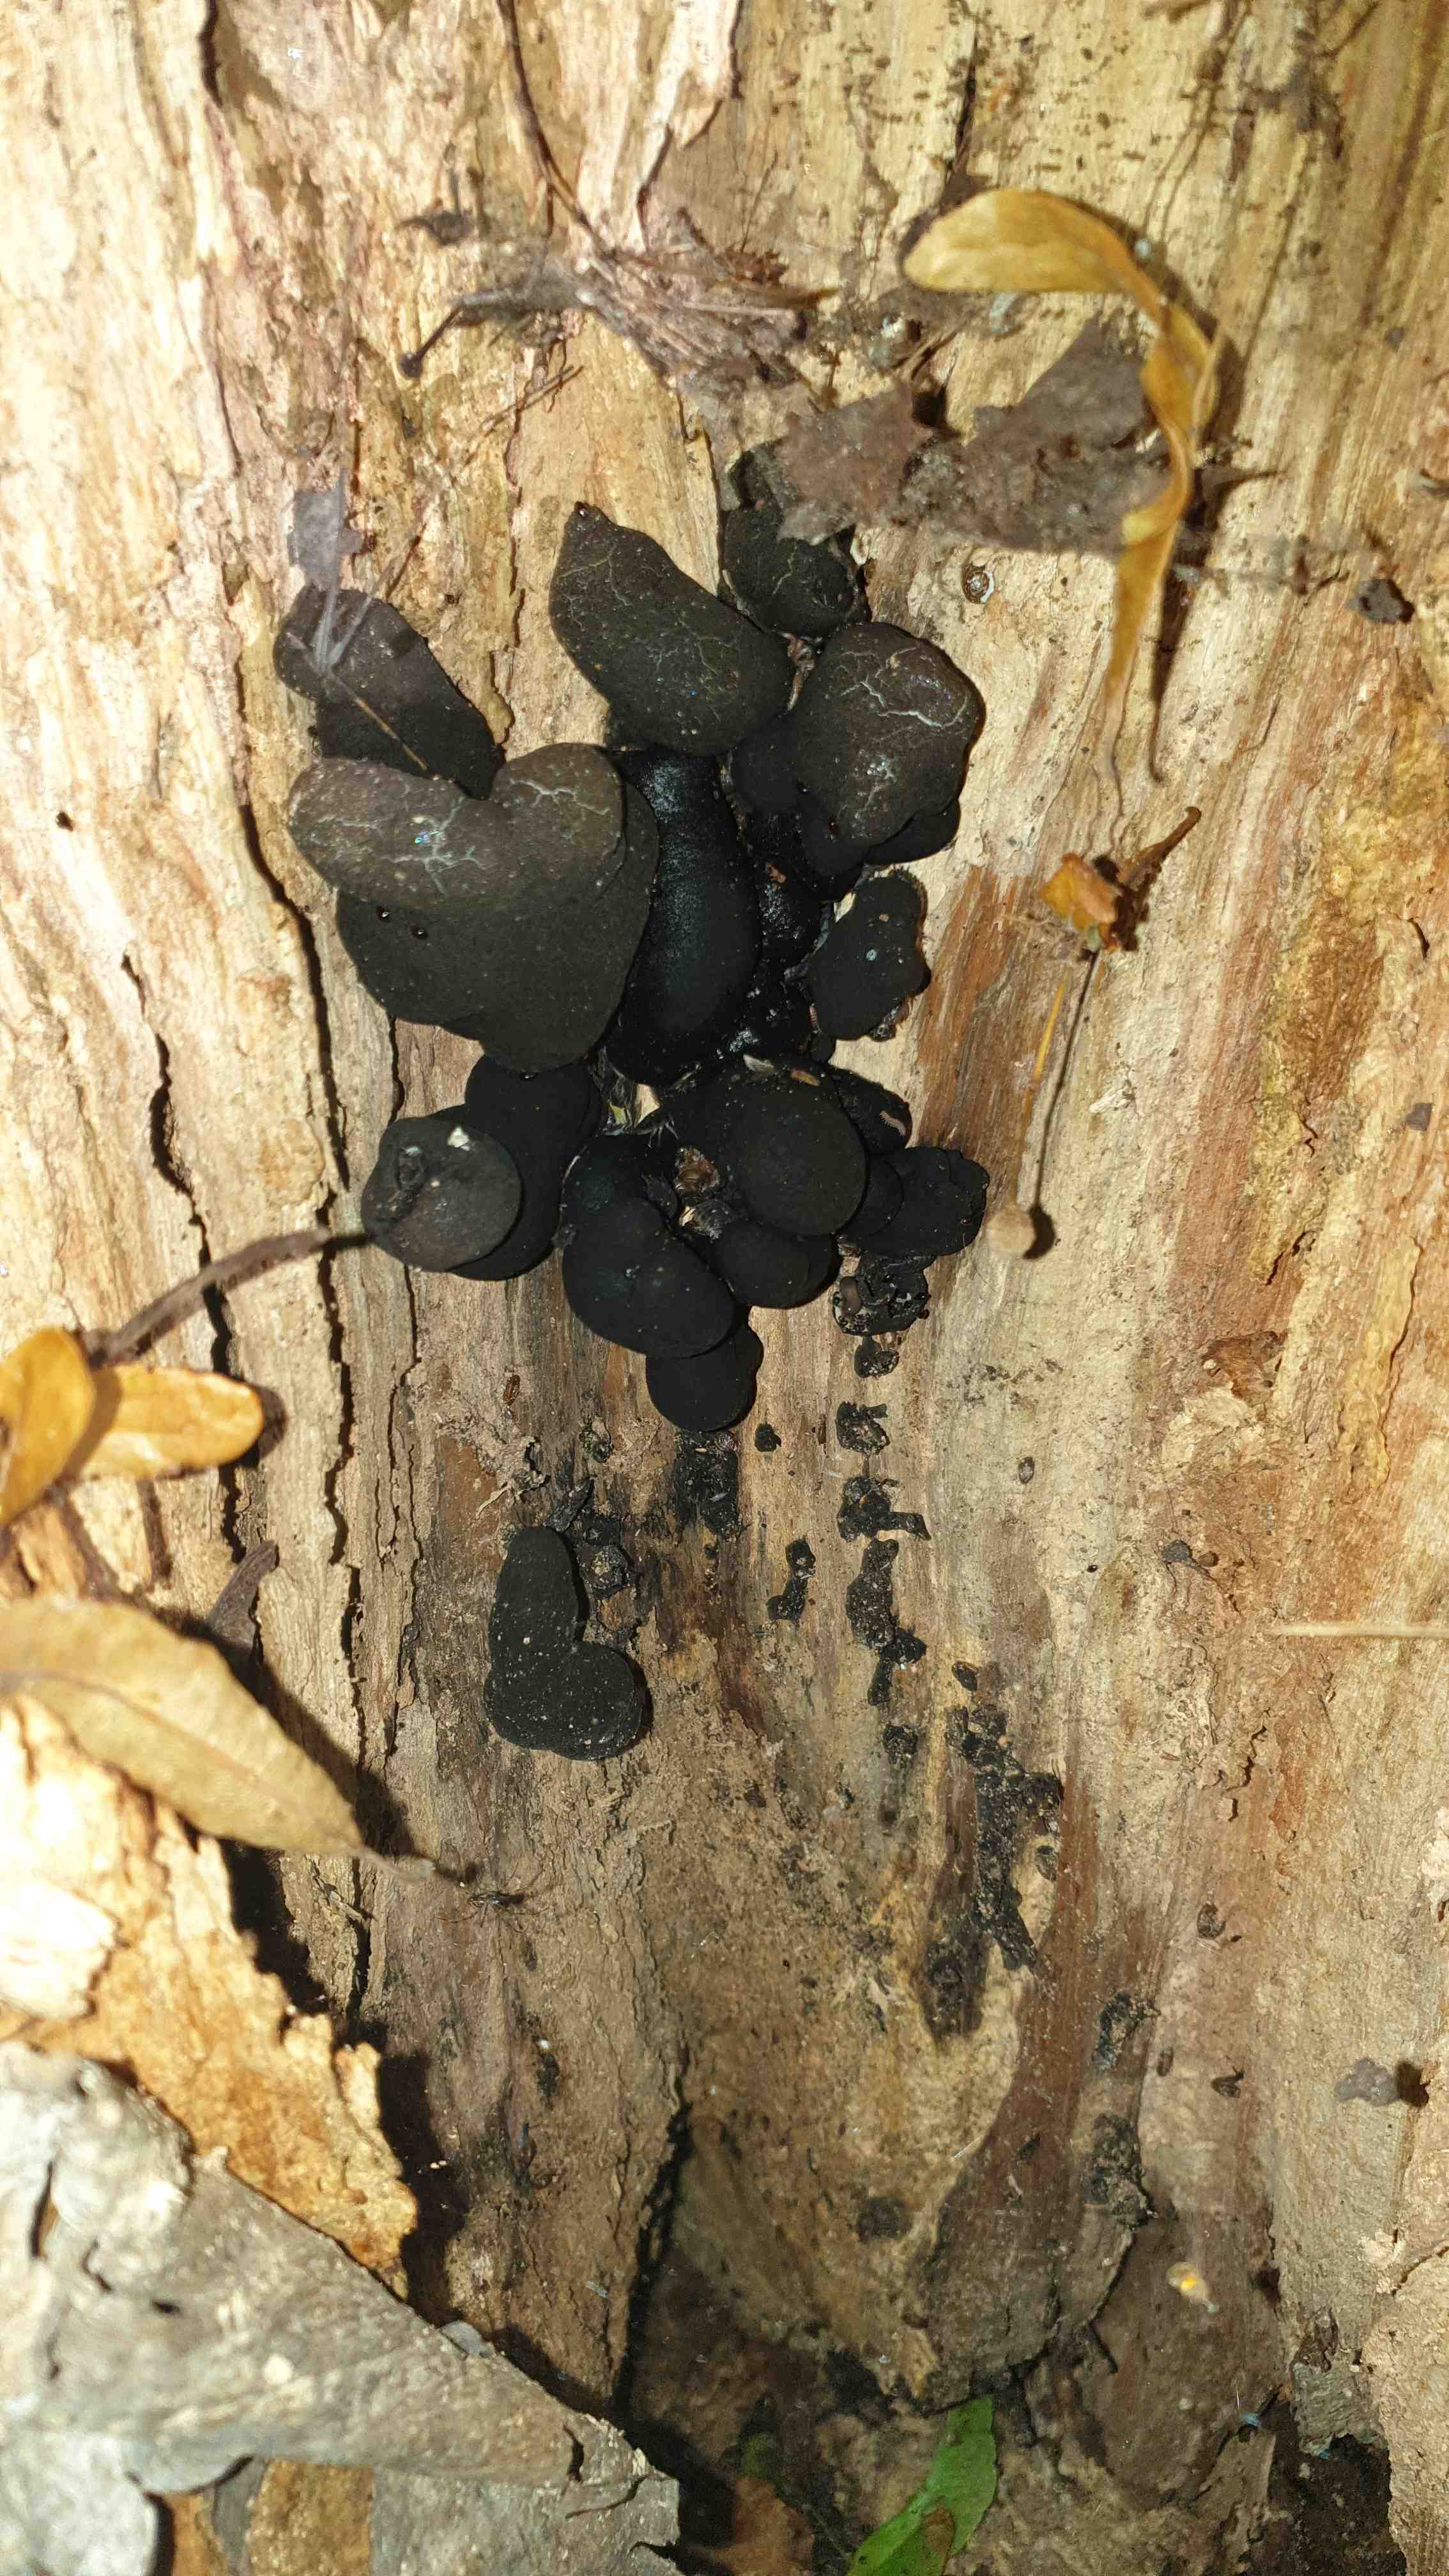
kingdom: Fungi
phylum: Ascomycota
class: Sordariomycetes
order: Xylariales
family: Xylariaceae
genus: Xylaria
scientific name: Xylaria polymorpha
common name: kølle-stødsvamp
